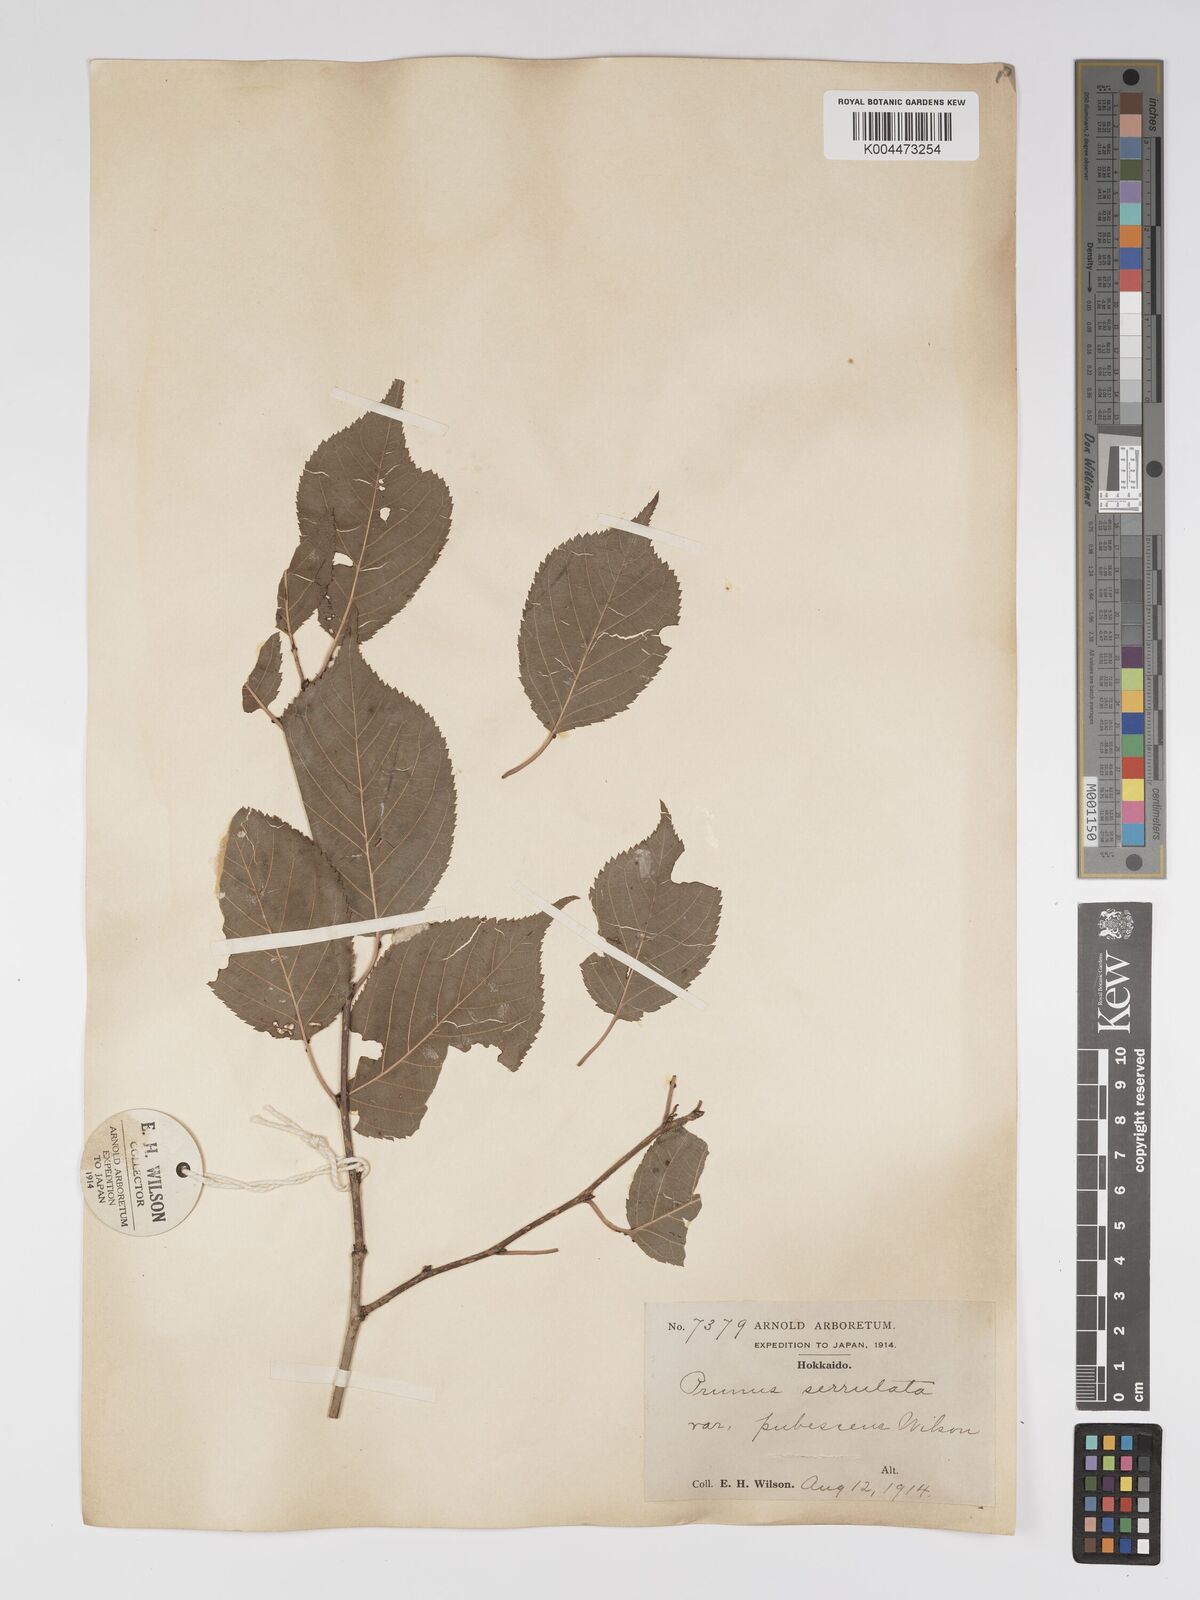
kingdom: Plantae
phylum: Tracheophyta
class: Magnoliopsida
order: Rosales
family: Rosaceae
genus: Prunus
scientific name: Prunus serrulata
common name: Japanese cherry
